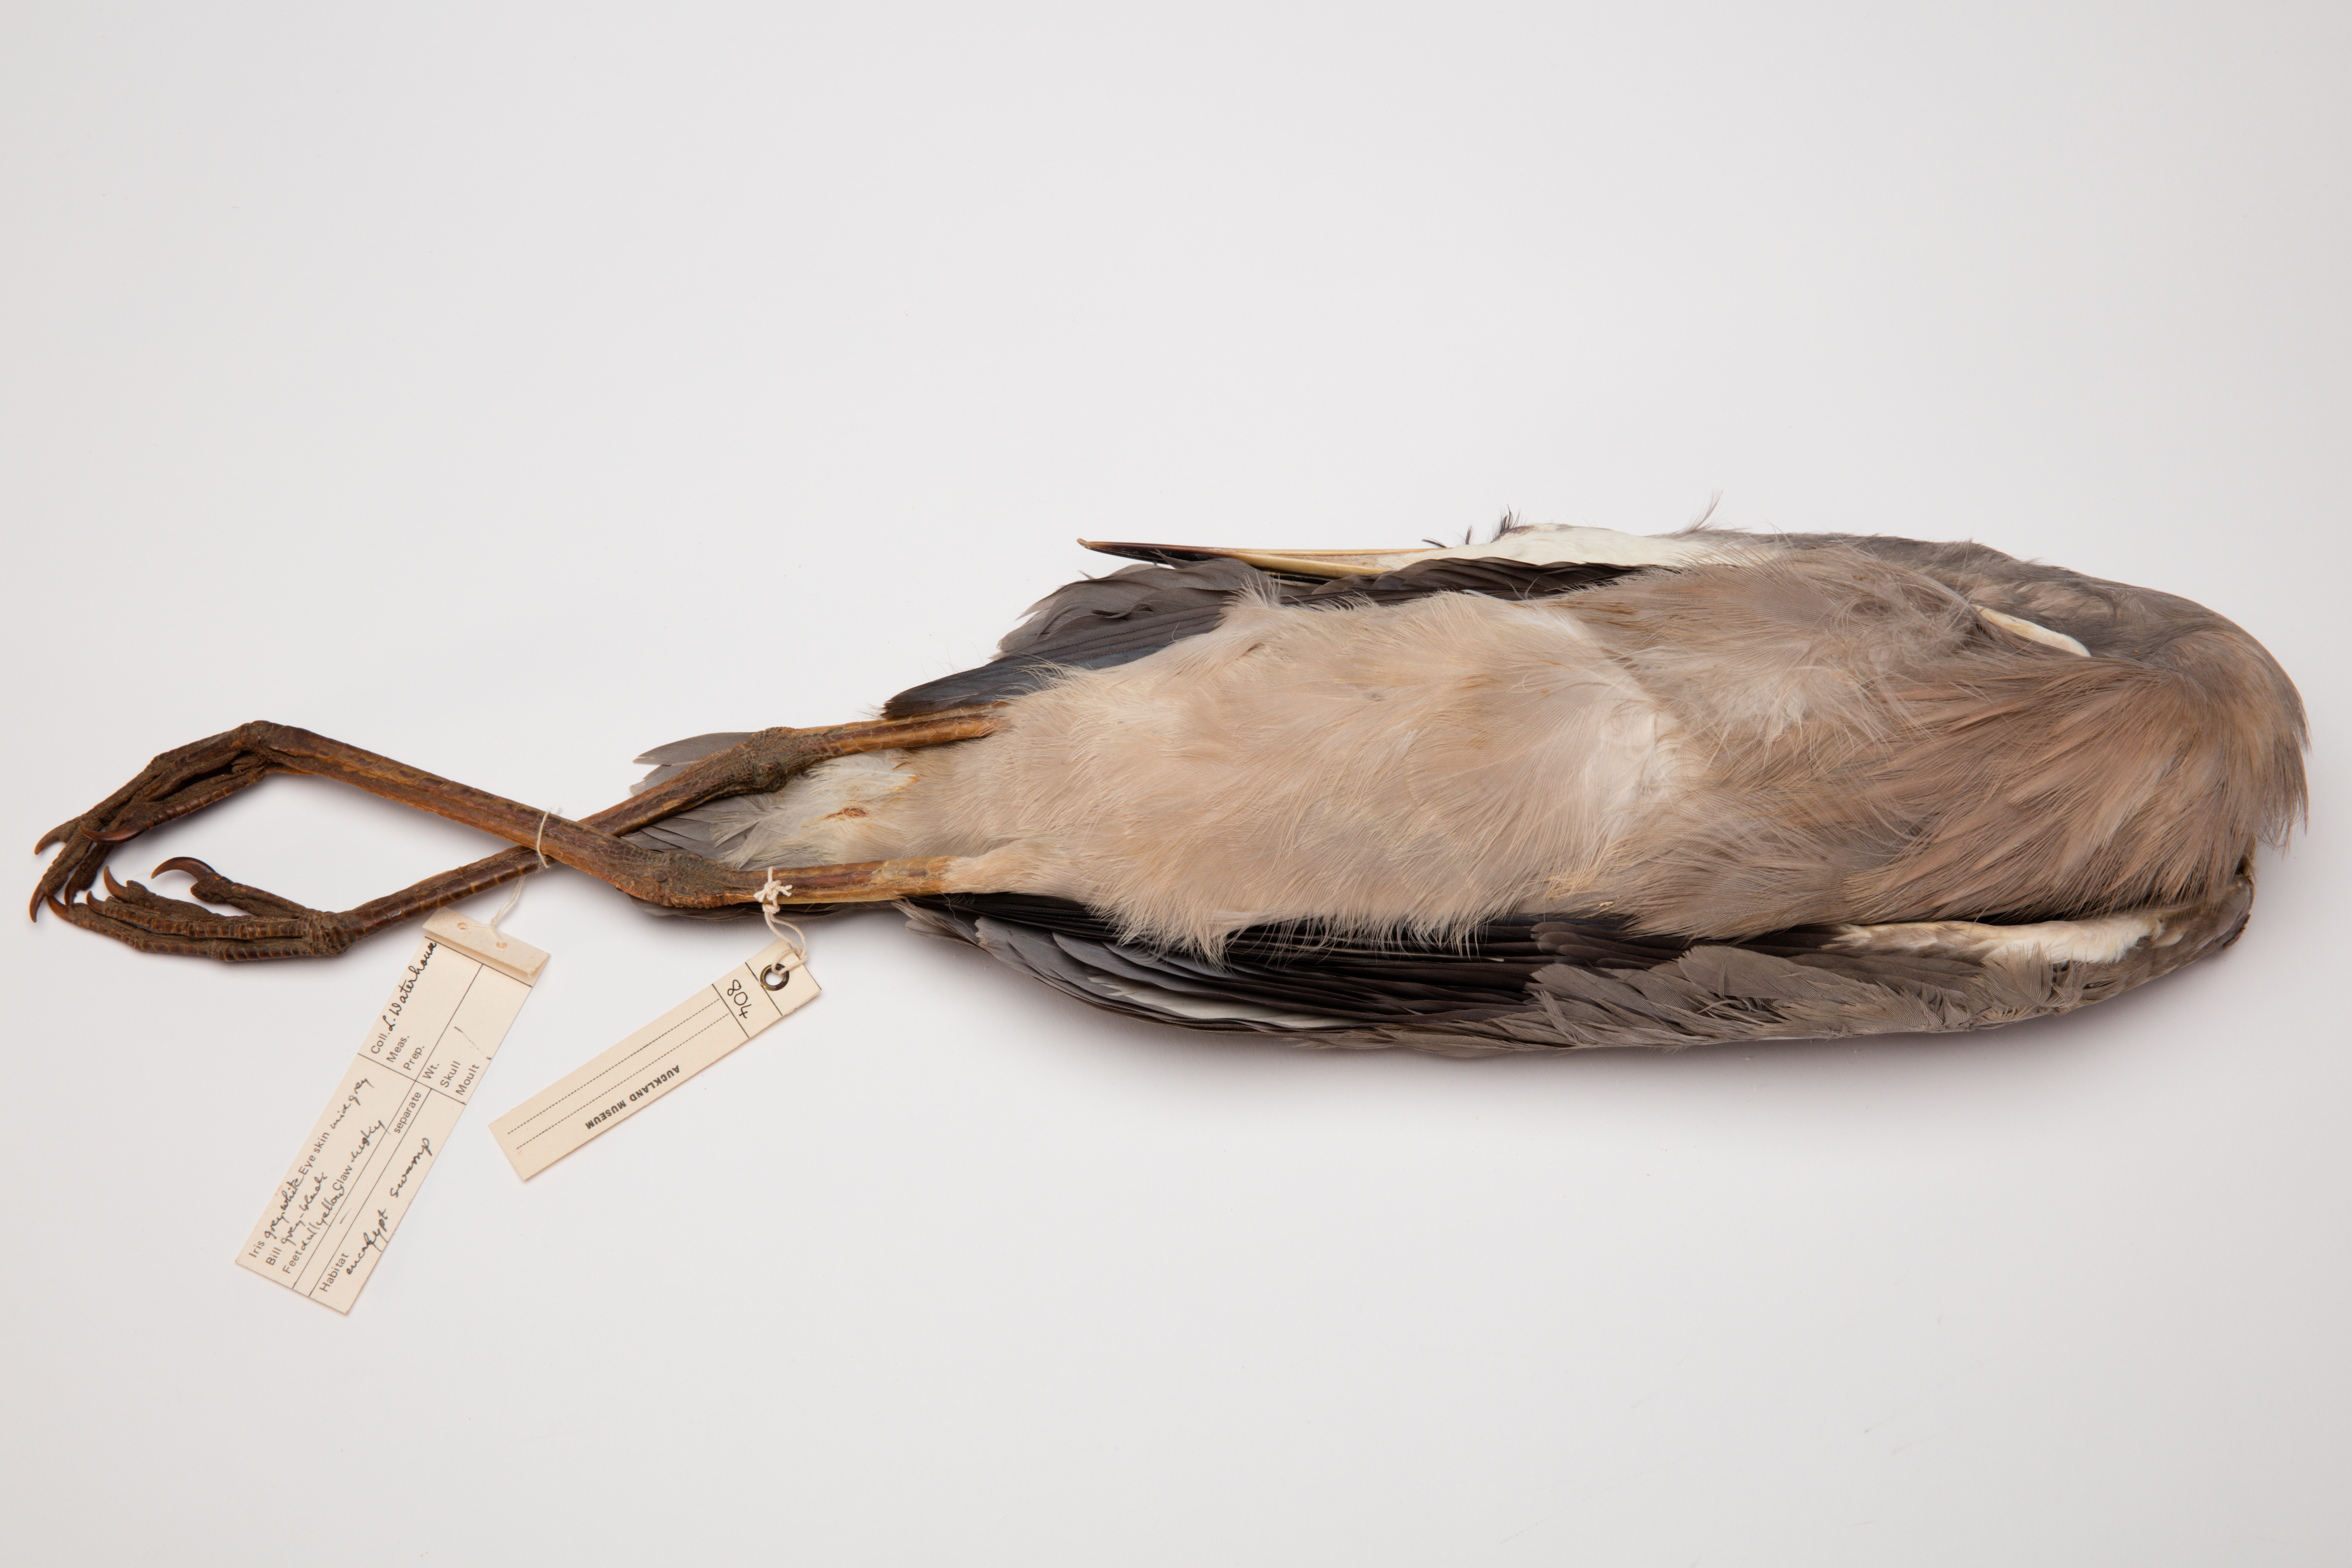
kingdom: Animalia
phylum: Chordata
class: Aves
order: Pelecaniformes
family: Ardeidae
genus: Egretta
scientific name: Egretta novaehollandiae
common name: White-faced heron
